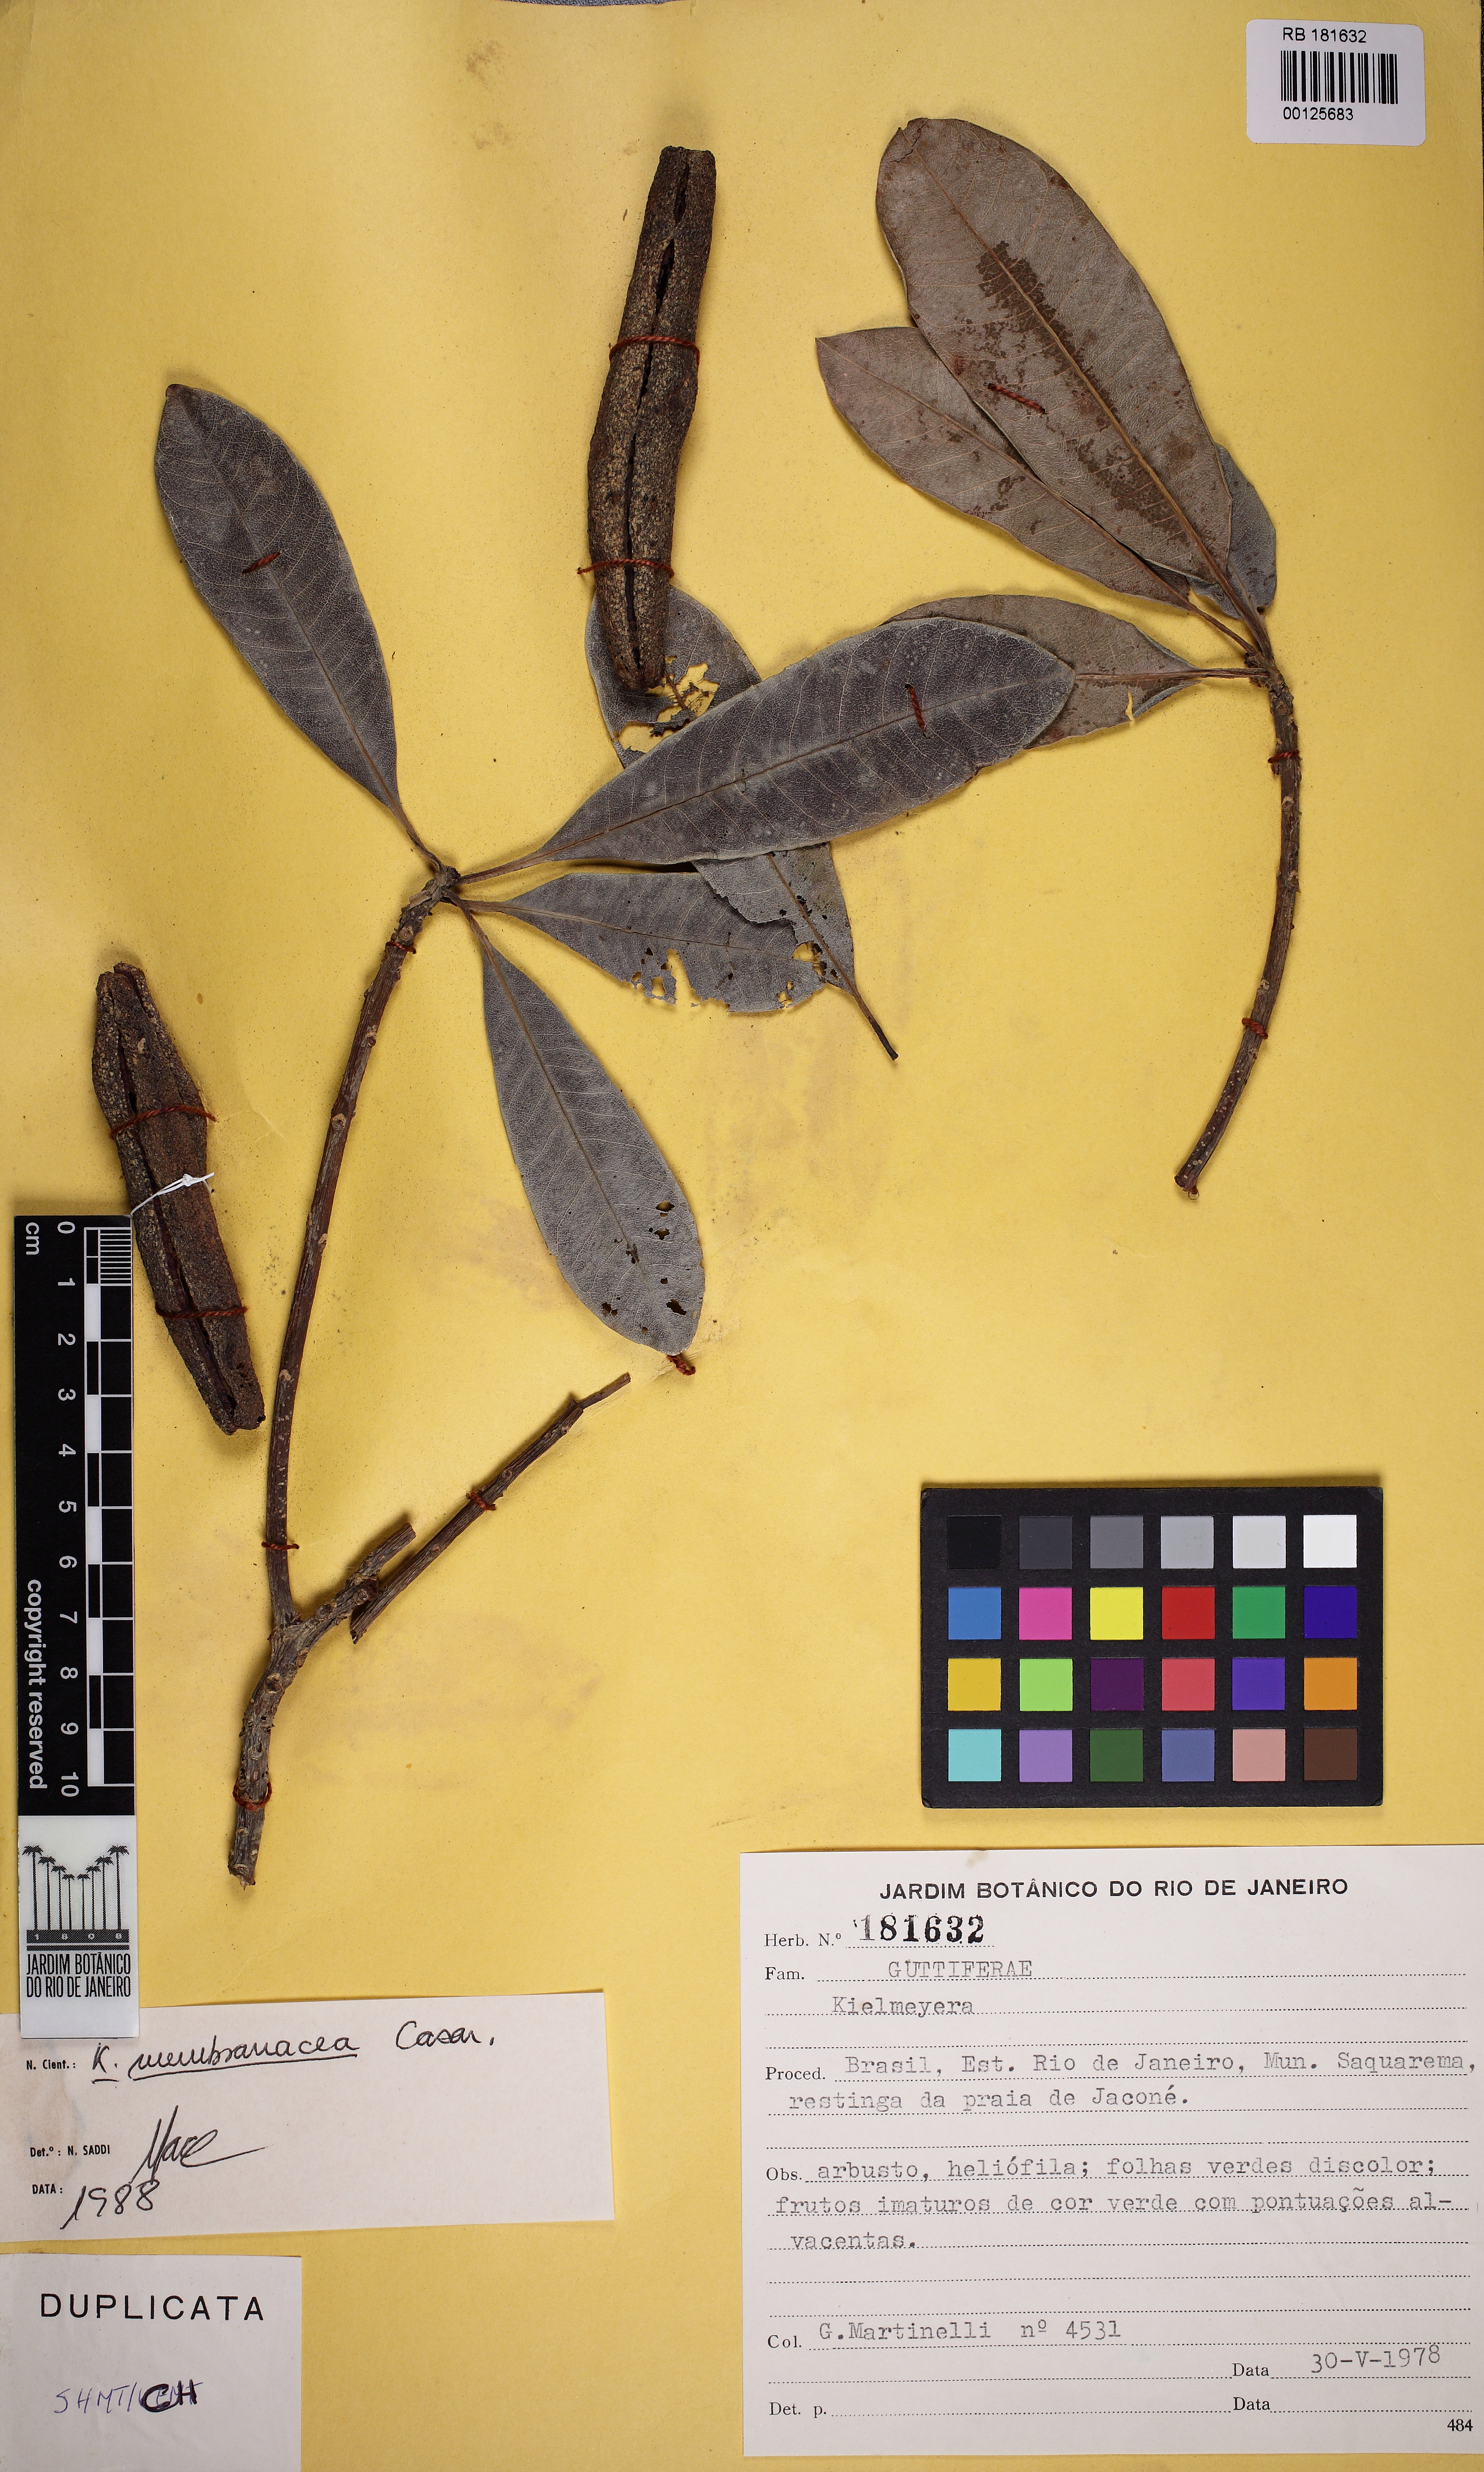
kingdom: Plantae
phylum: Tracheophyta
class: Magnoliopsida
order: Malpighiales
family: Calophyllaceae
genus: Kielmeyera
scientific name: Kielmeyera membranacea
